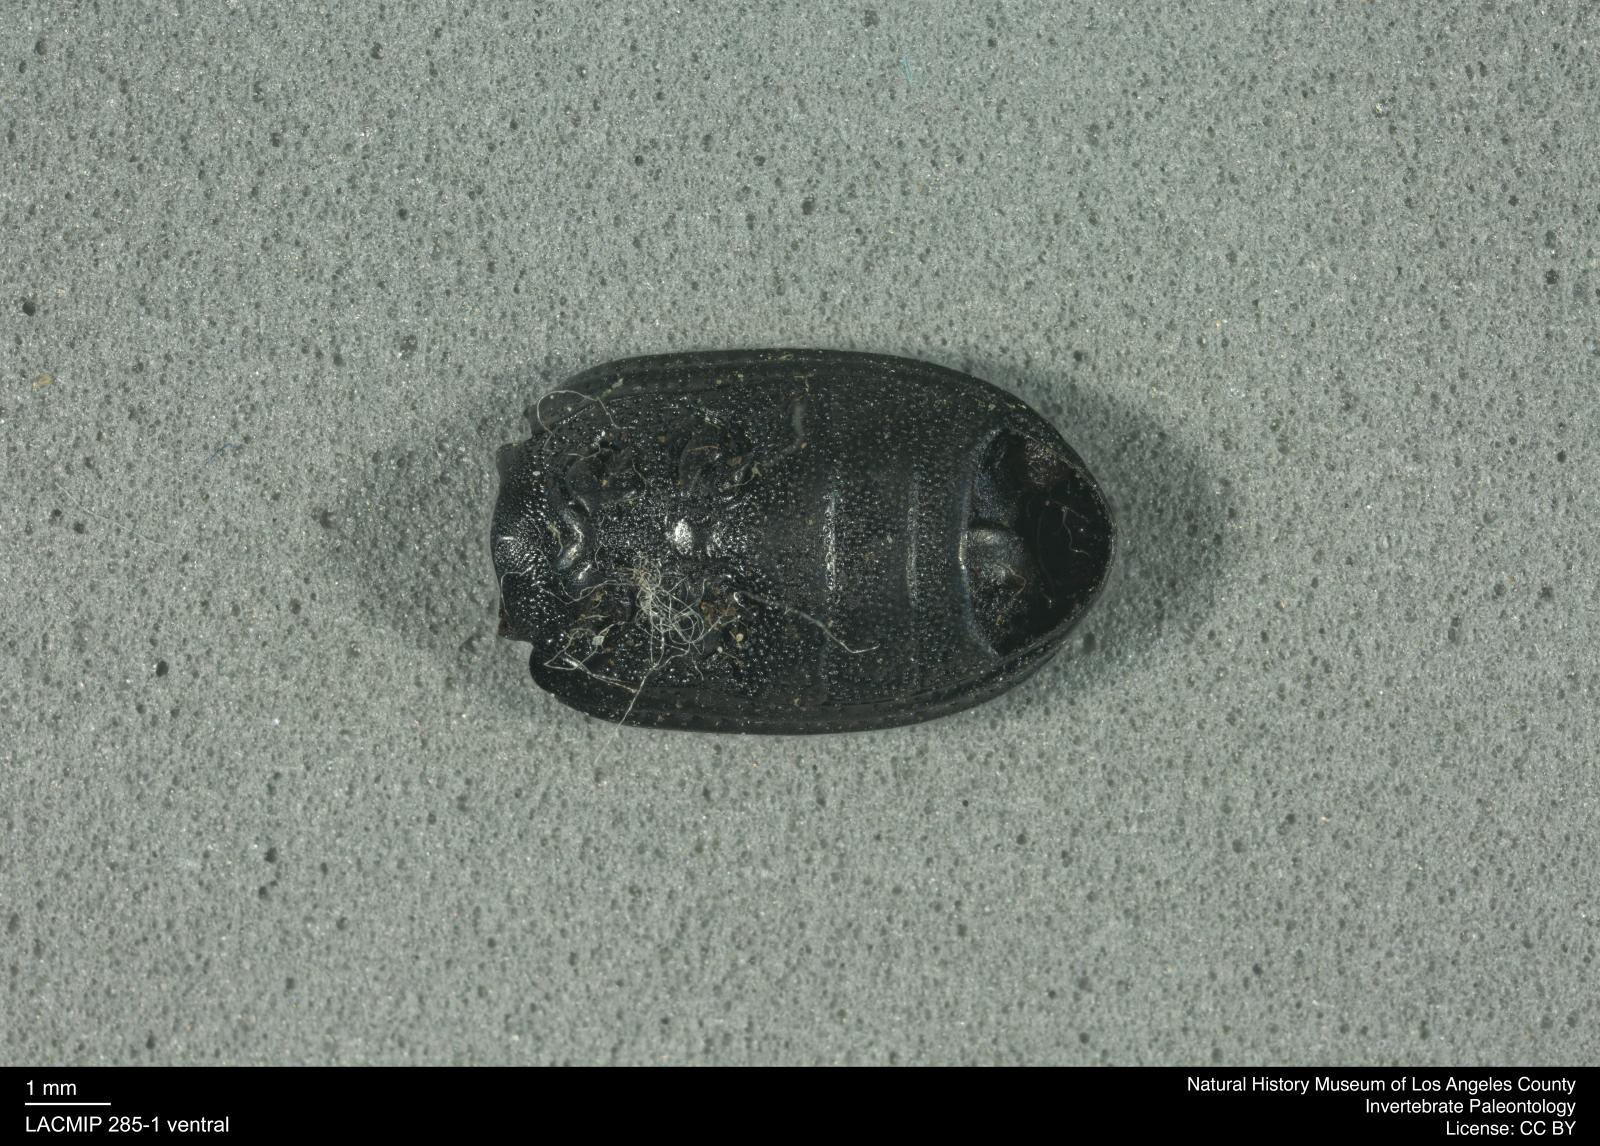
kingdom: Animalia
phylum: Arthropoda
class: Insecta
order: Coleoptera
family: Tenebrionidae
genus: Apsena
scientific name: Apsena laticornis
